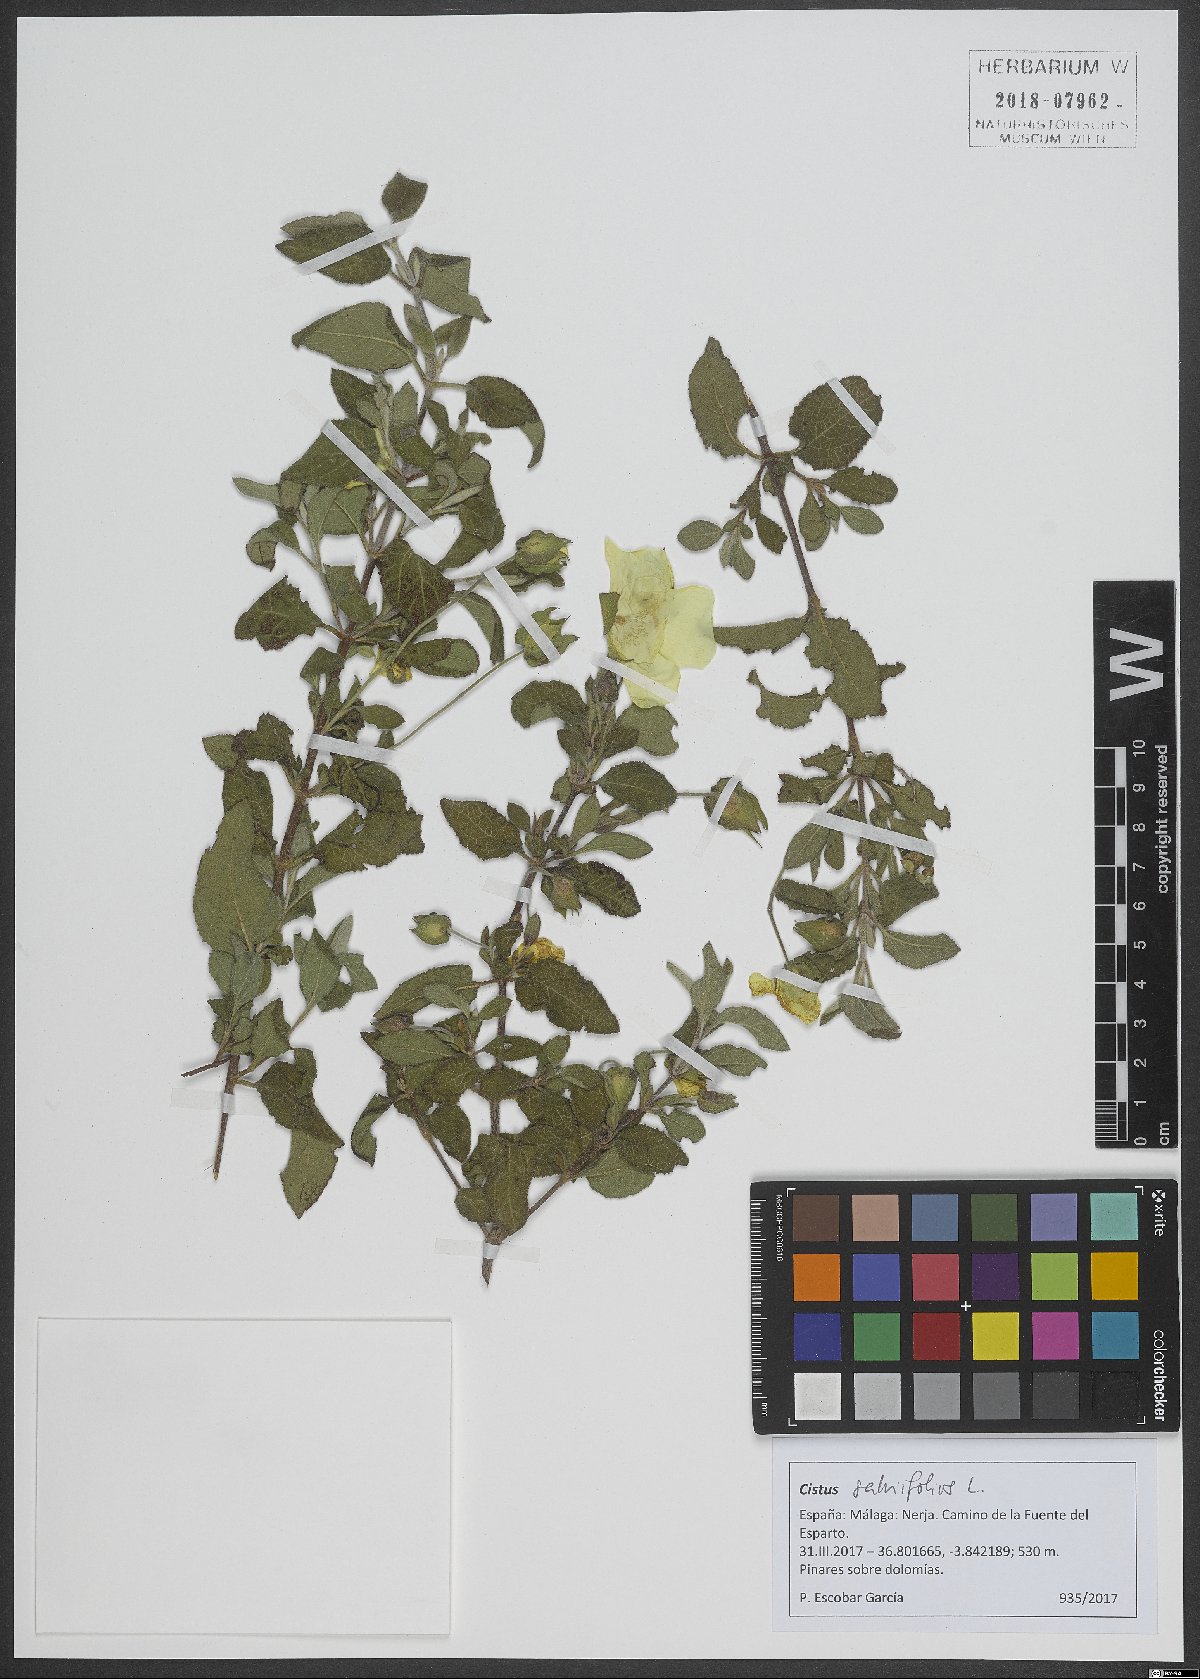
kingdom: Plantae
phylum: Tracheophyta
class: Magnoliopsida
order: Malvales
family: Cistaceae
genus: Cistus
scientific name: Cistus salviifolius
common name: Salvia cistus
